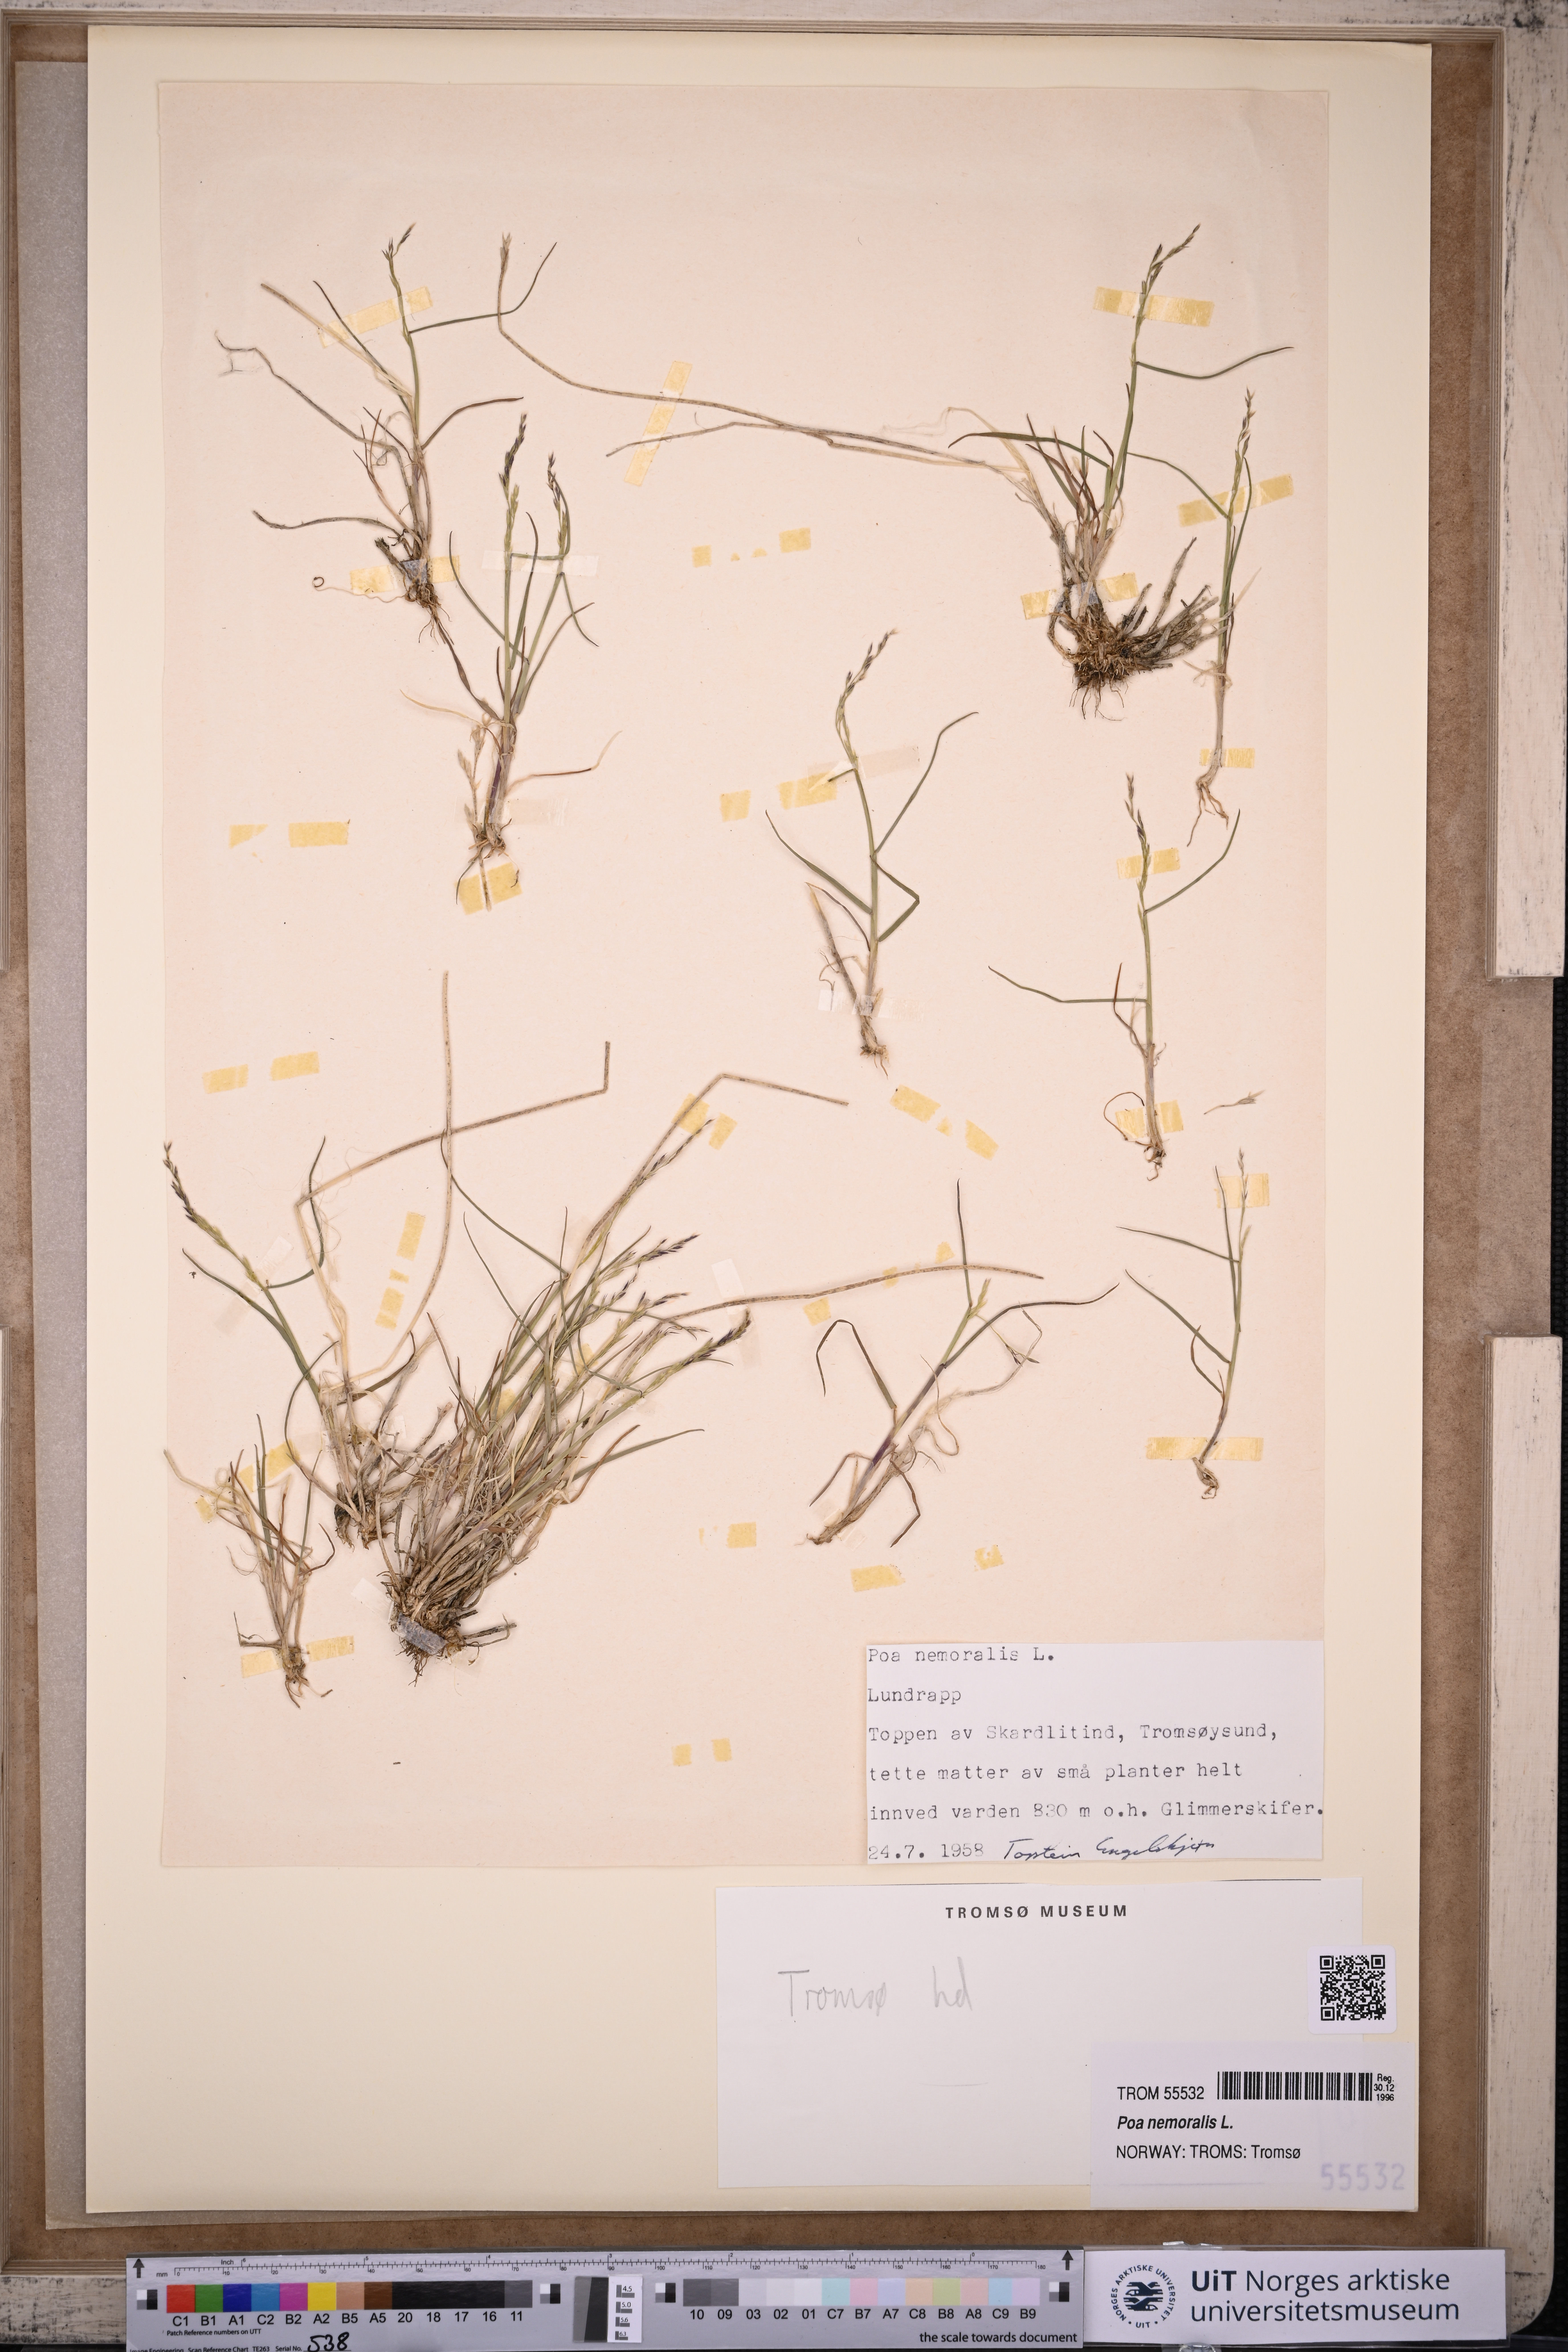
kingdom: Plantae
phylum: Tracheophyta
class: Liliopsida
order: Poales
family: Poaceae
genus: Poa
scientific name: Poa nemoralis
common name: Wood bluegrass
